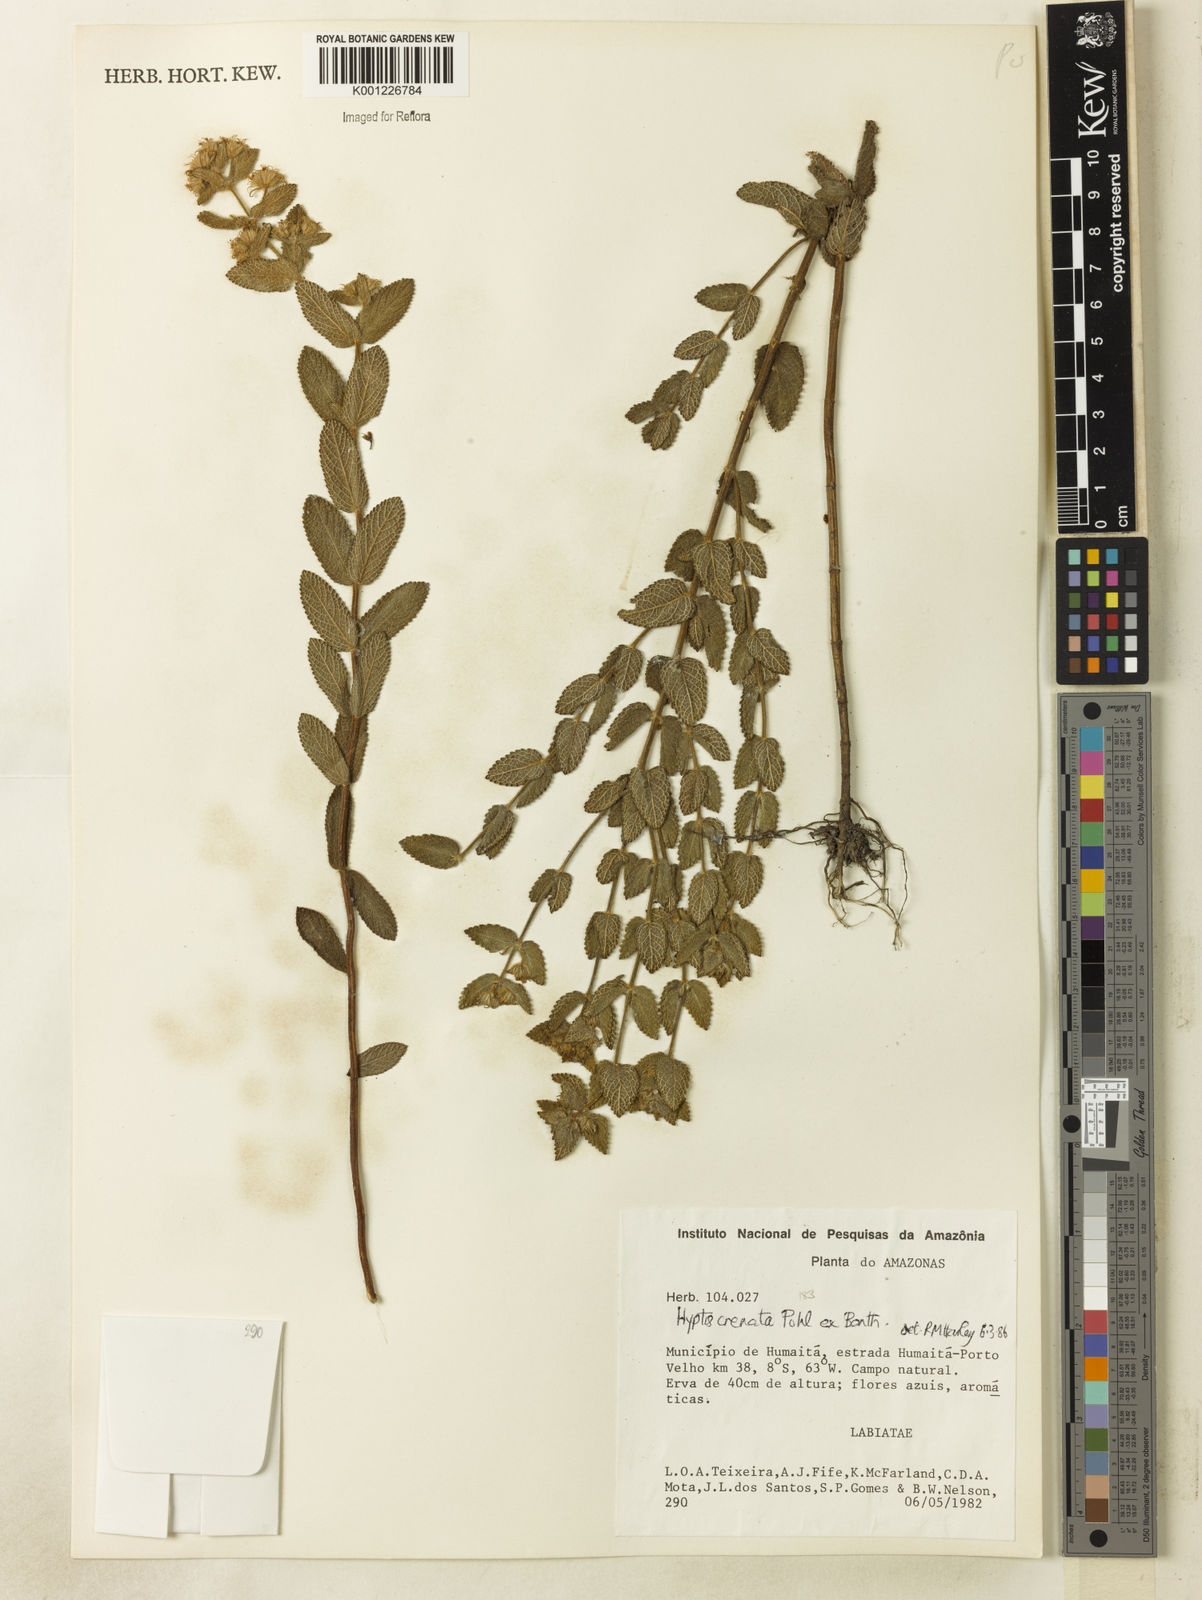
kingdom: Plantae
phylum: Tracheophyta
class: Magnoliopsida
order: Lamiales
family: Lamiaceae
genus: Hyptis
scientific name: Hyptis crenata
